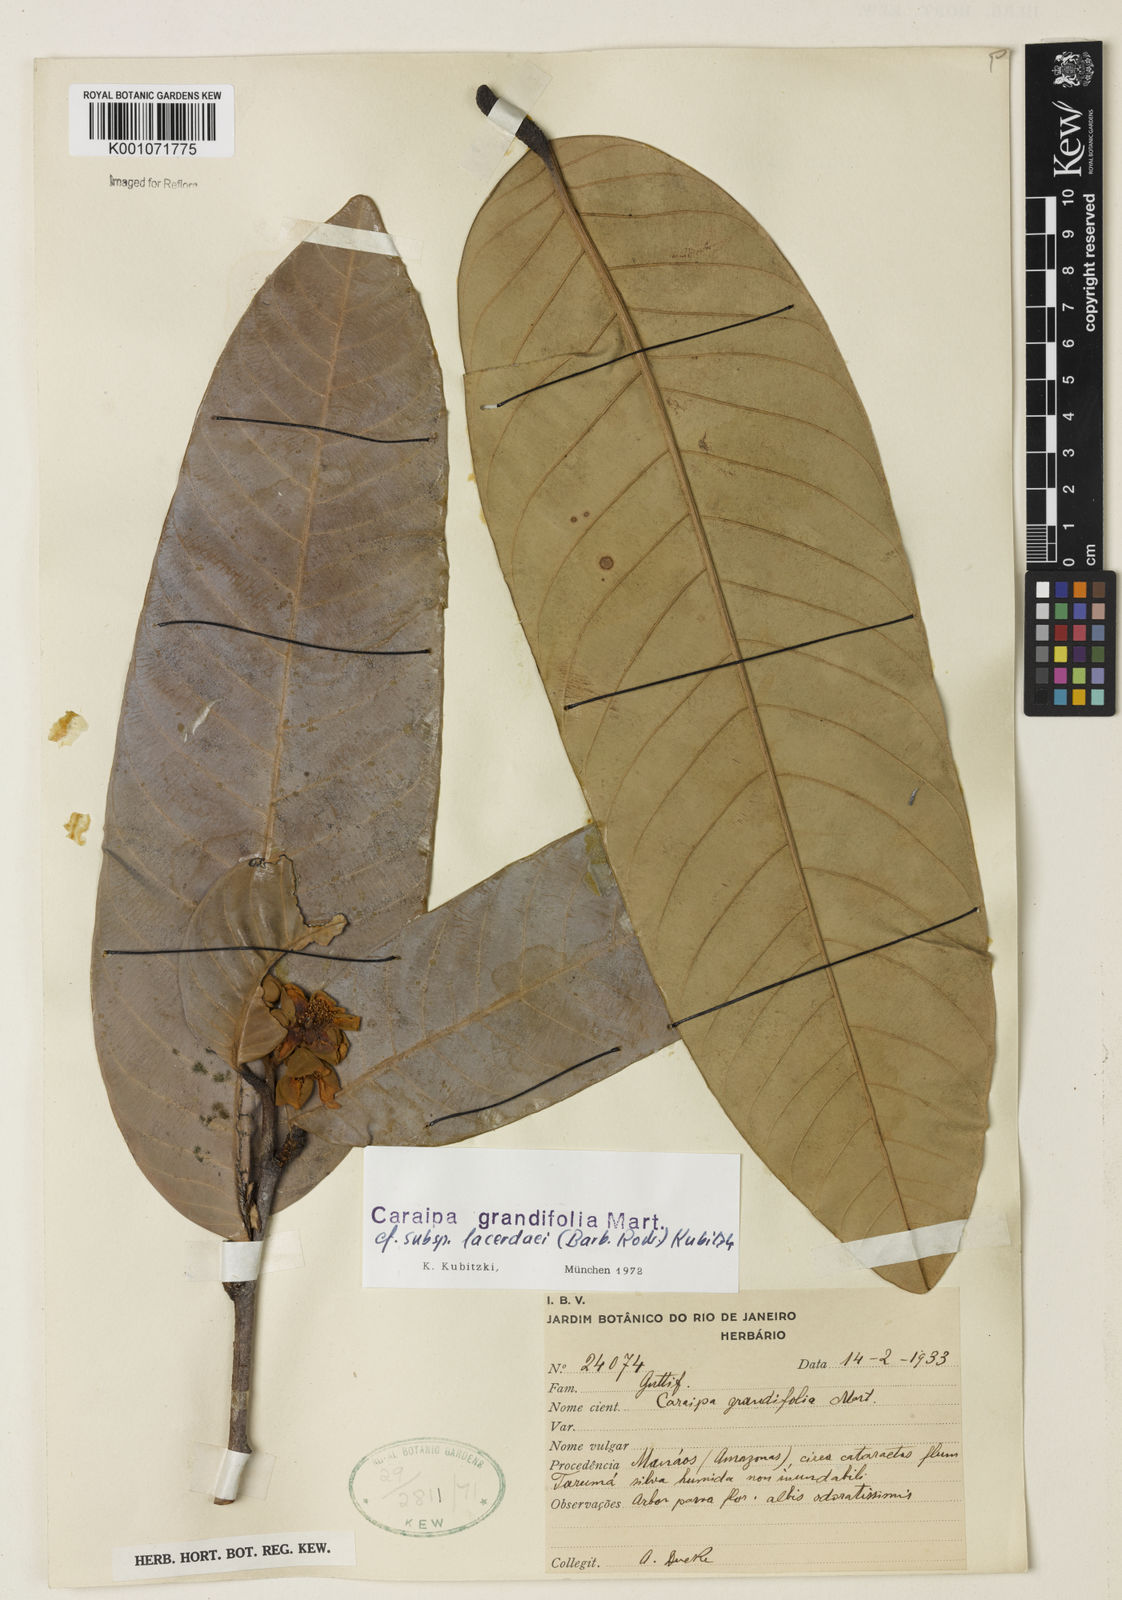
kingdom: Plantae
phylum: Tracheophyta
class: Magnoliopsida
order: Malpighiales
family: Calophyllaceae
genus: Caraipa
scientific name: Caraipa grandifolia
